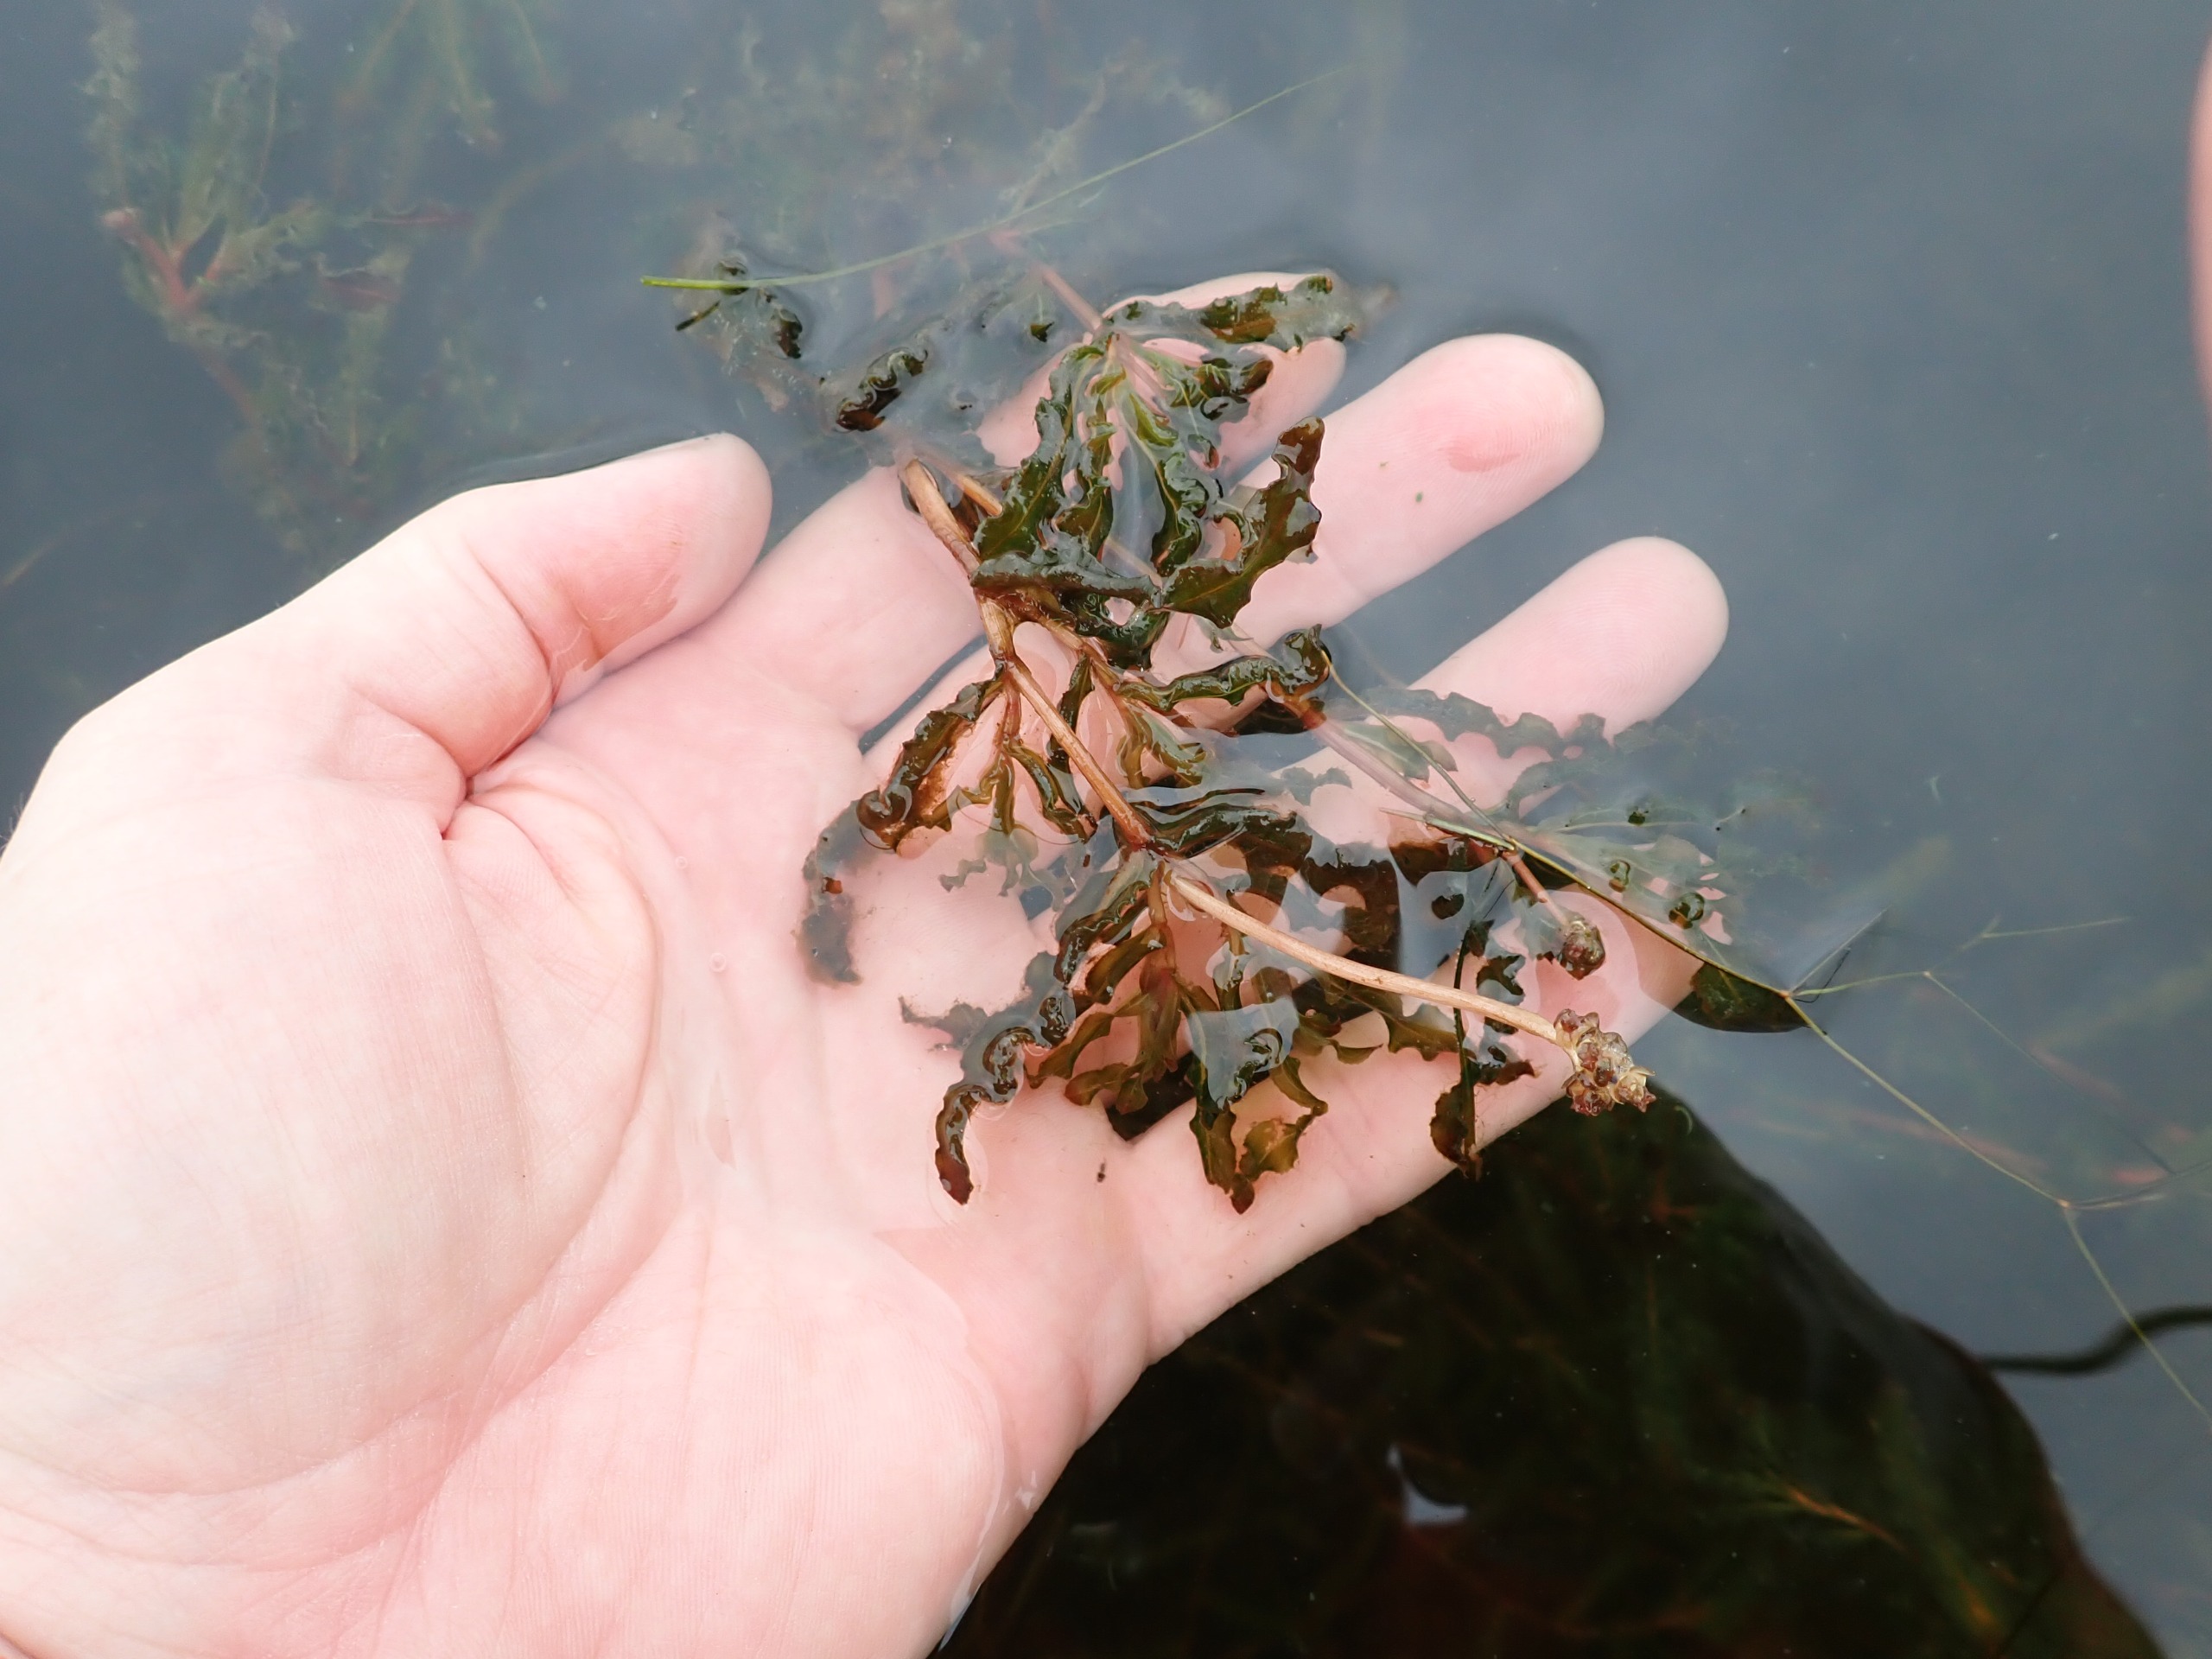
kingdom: Plantae
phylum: Tracheophyta
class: Liliopsida
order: Alismatales
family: Potamogetonaceae
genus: Potamogeton
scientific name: Potamogeton crispus
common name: Kruset vandaks
